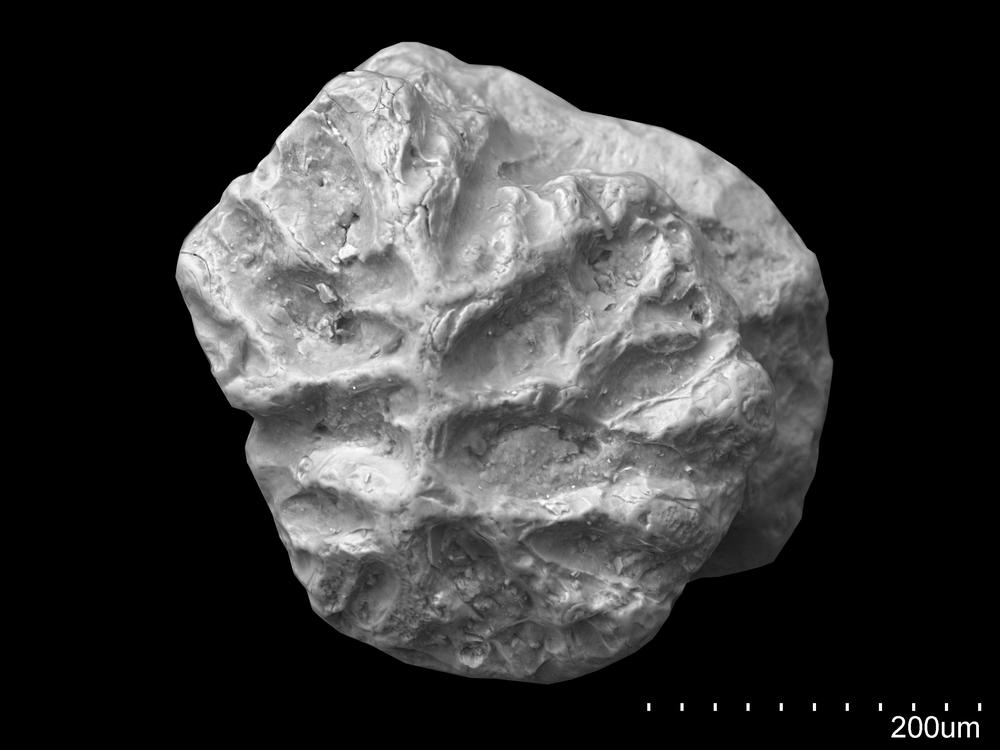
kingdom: Animalia
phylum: Chordata
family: Diplacanthidae
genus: Diplacanthus
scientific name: Diplacanthus
